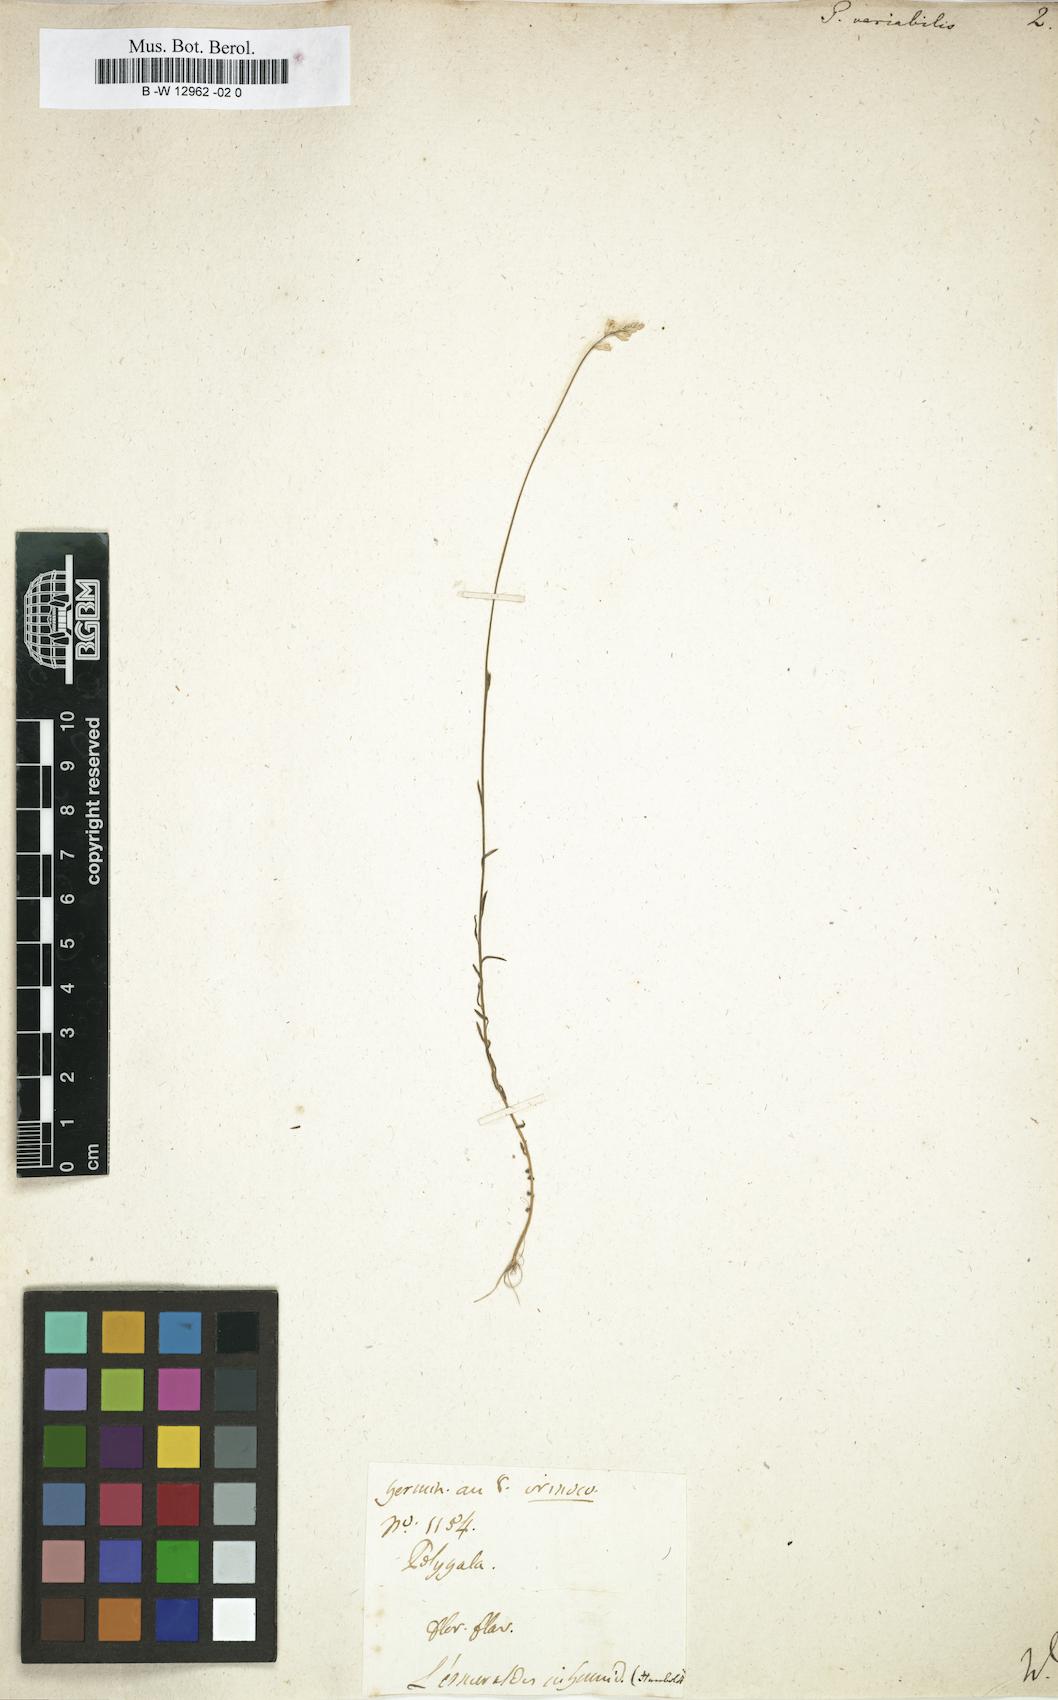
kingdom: Plantae
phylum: Tracheophyta
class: Magnoliopsida
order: Fabales
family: Polygalaceae
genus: Polygala
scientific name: Polygala trichosperma
